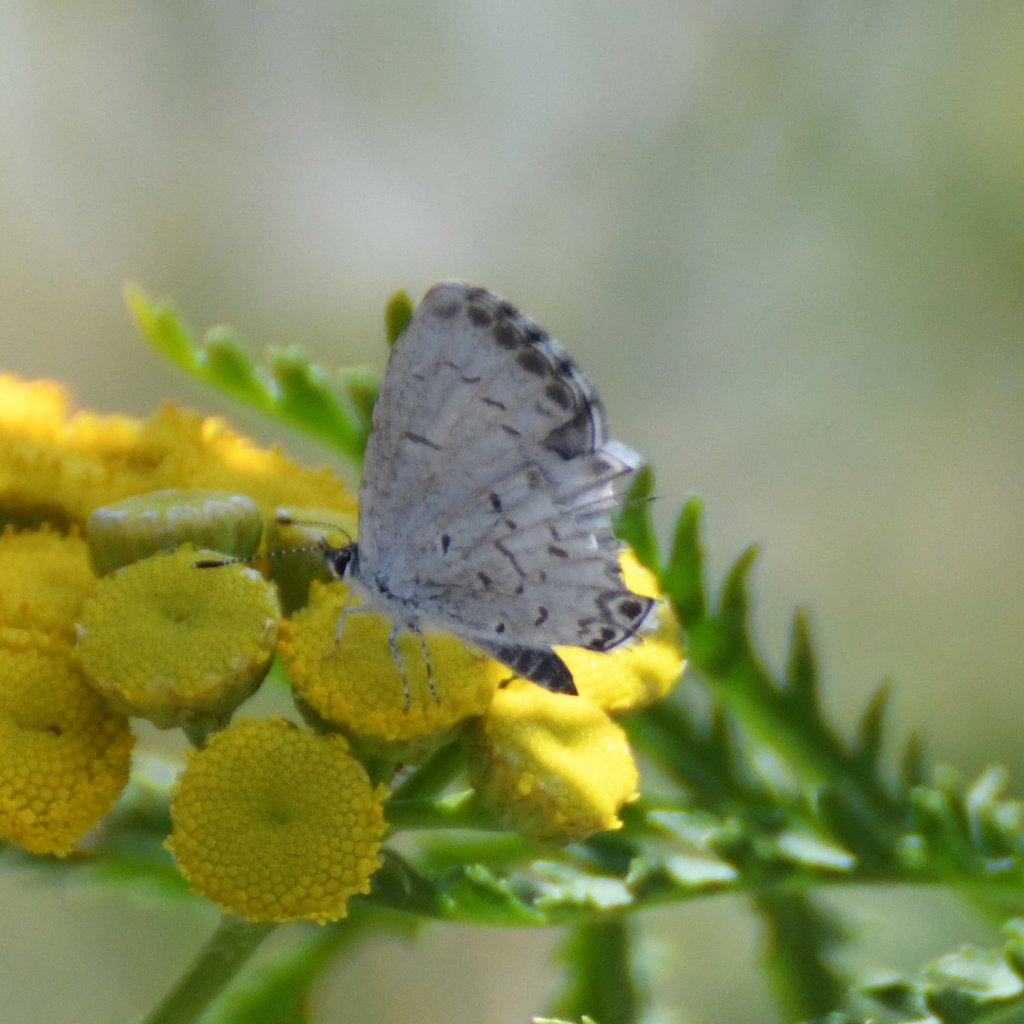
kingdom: Animalia
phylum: Arthropoda
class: Insecta
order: Lepidoptera
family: Lycaenidae
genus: Celastrina
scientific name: Celastrina lucia
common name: Northern Spring Azure
